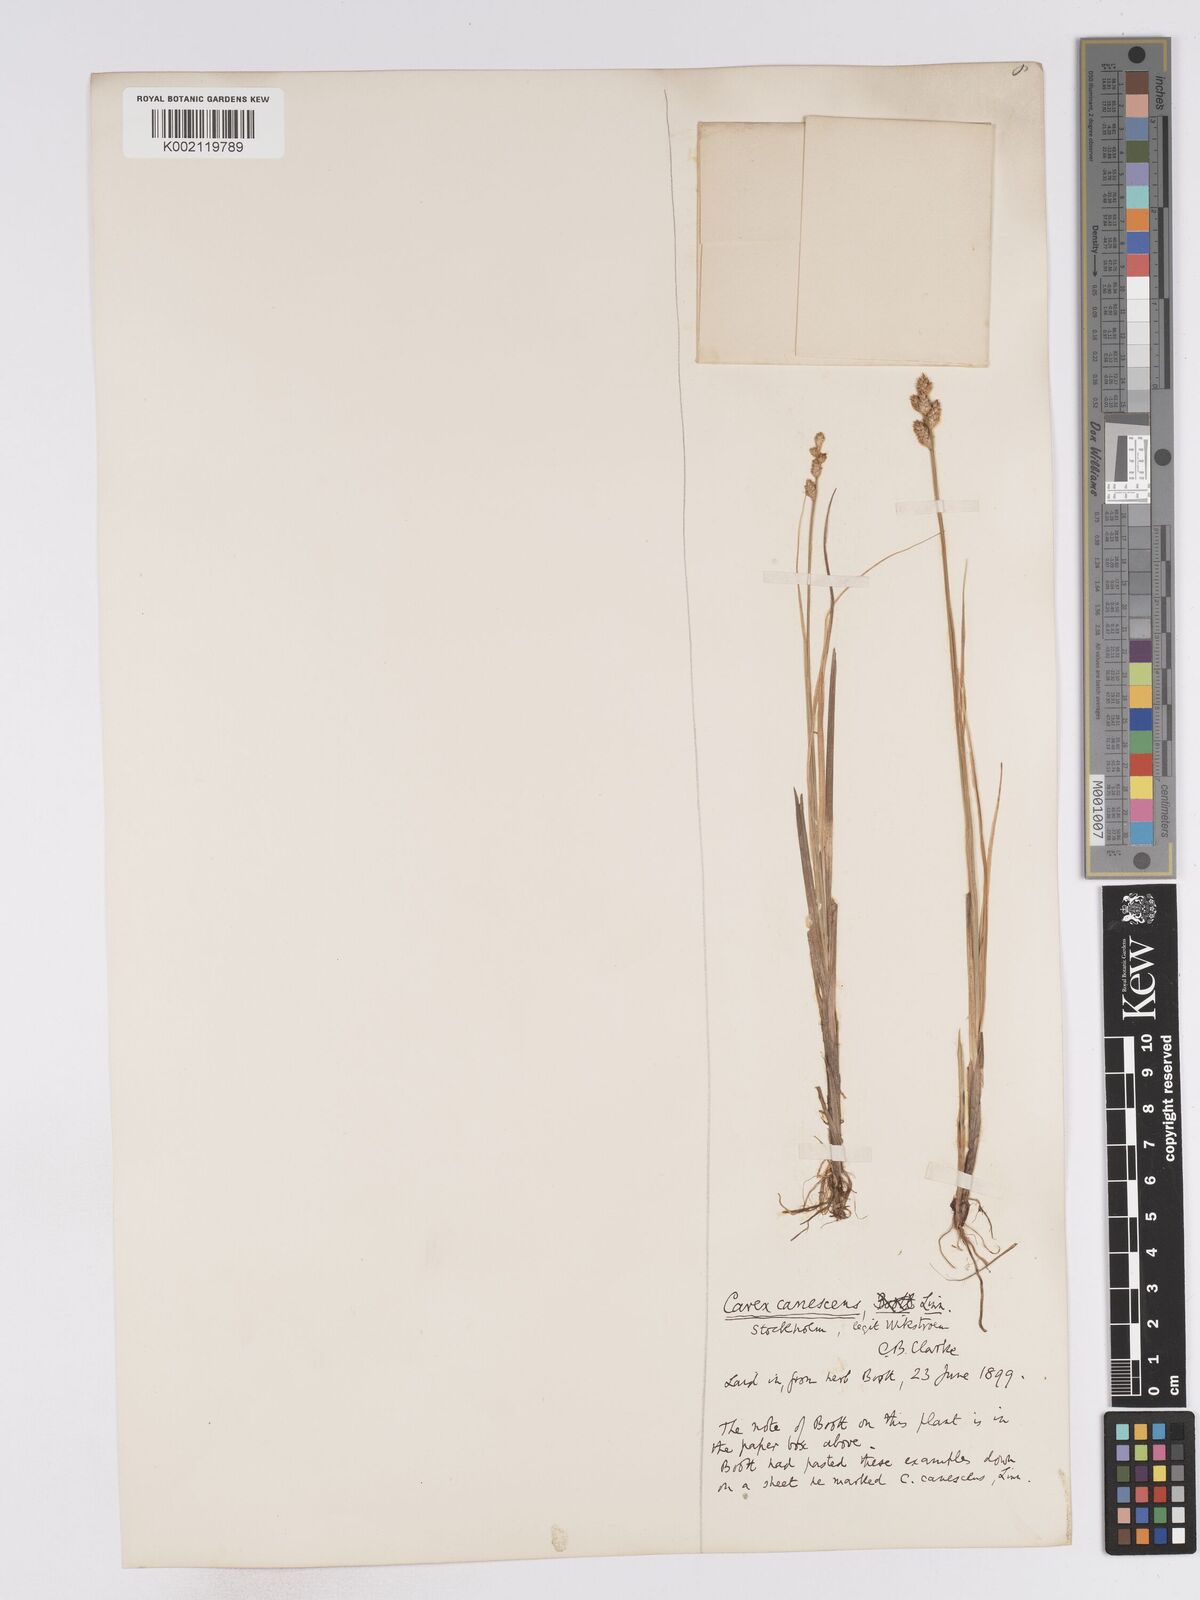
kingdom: Plantae
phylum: Tracheophyta
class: Liliopsida
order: Poales
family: Cyperaceae
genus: Carex
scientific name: Carex curta
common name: White sedge
